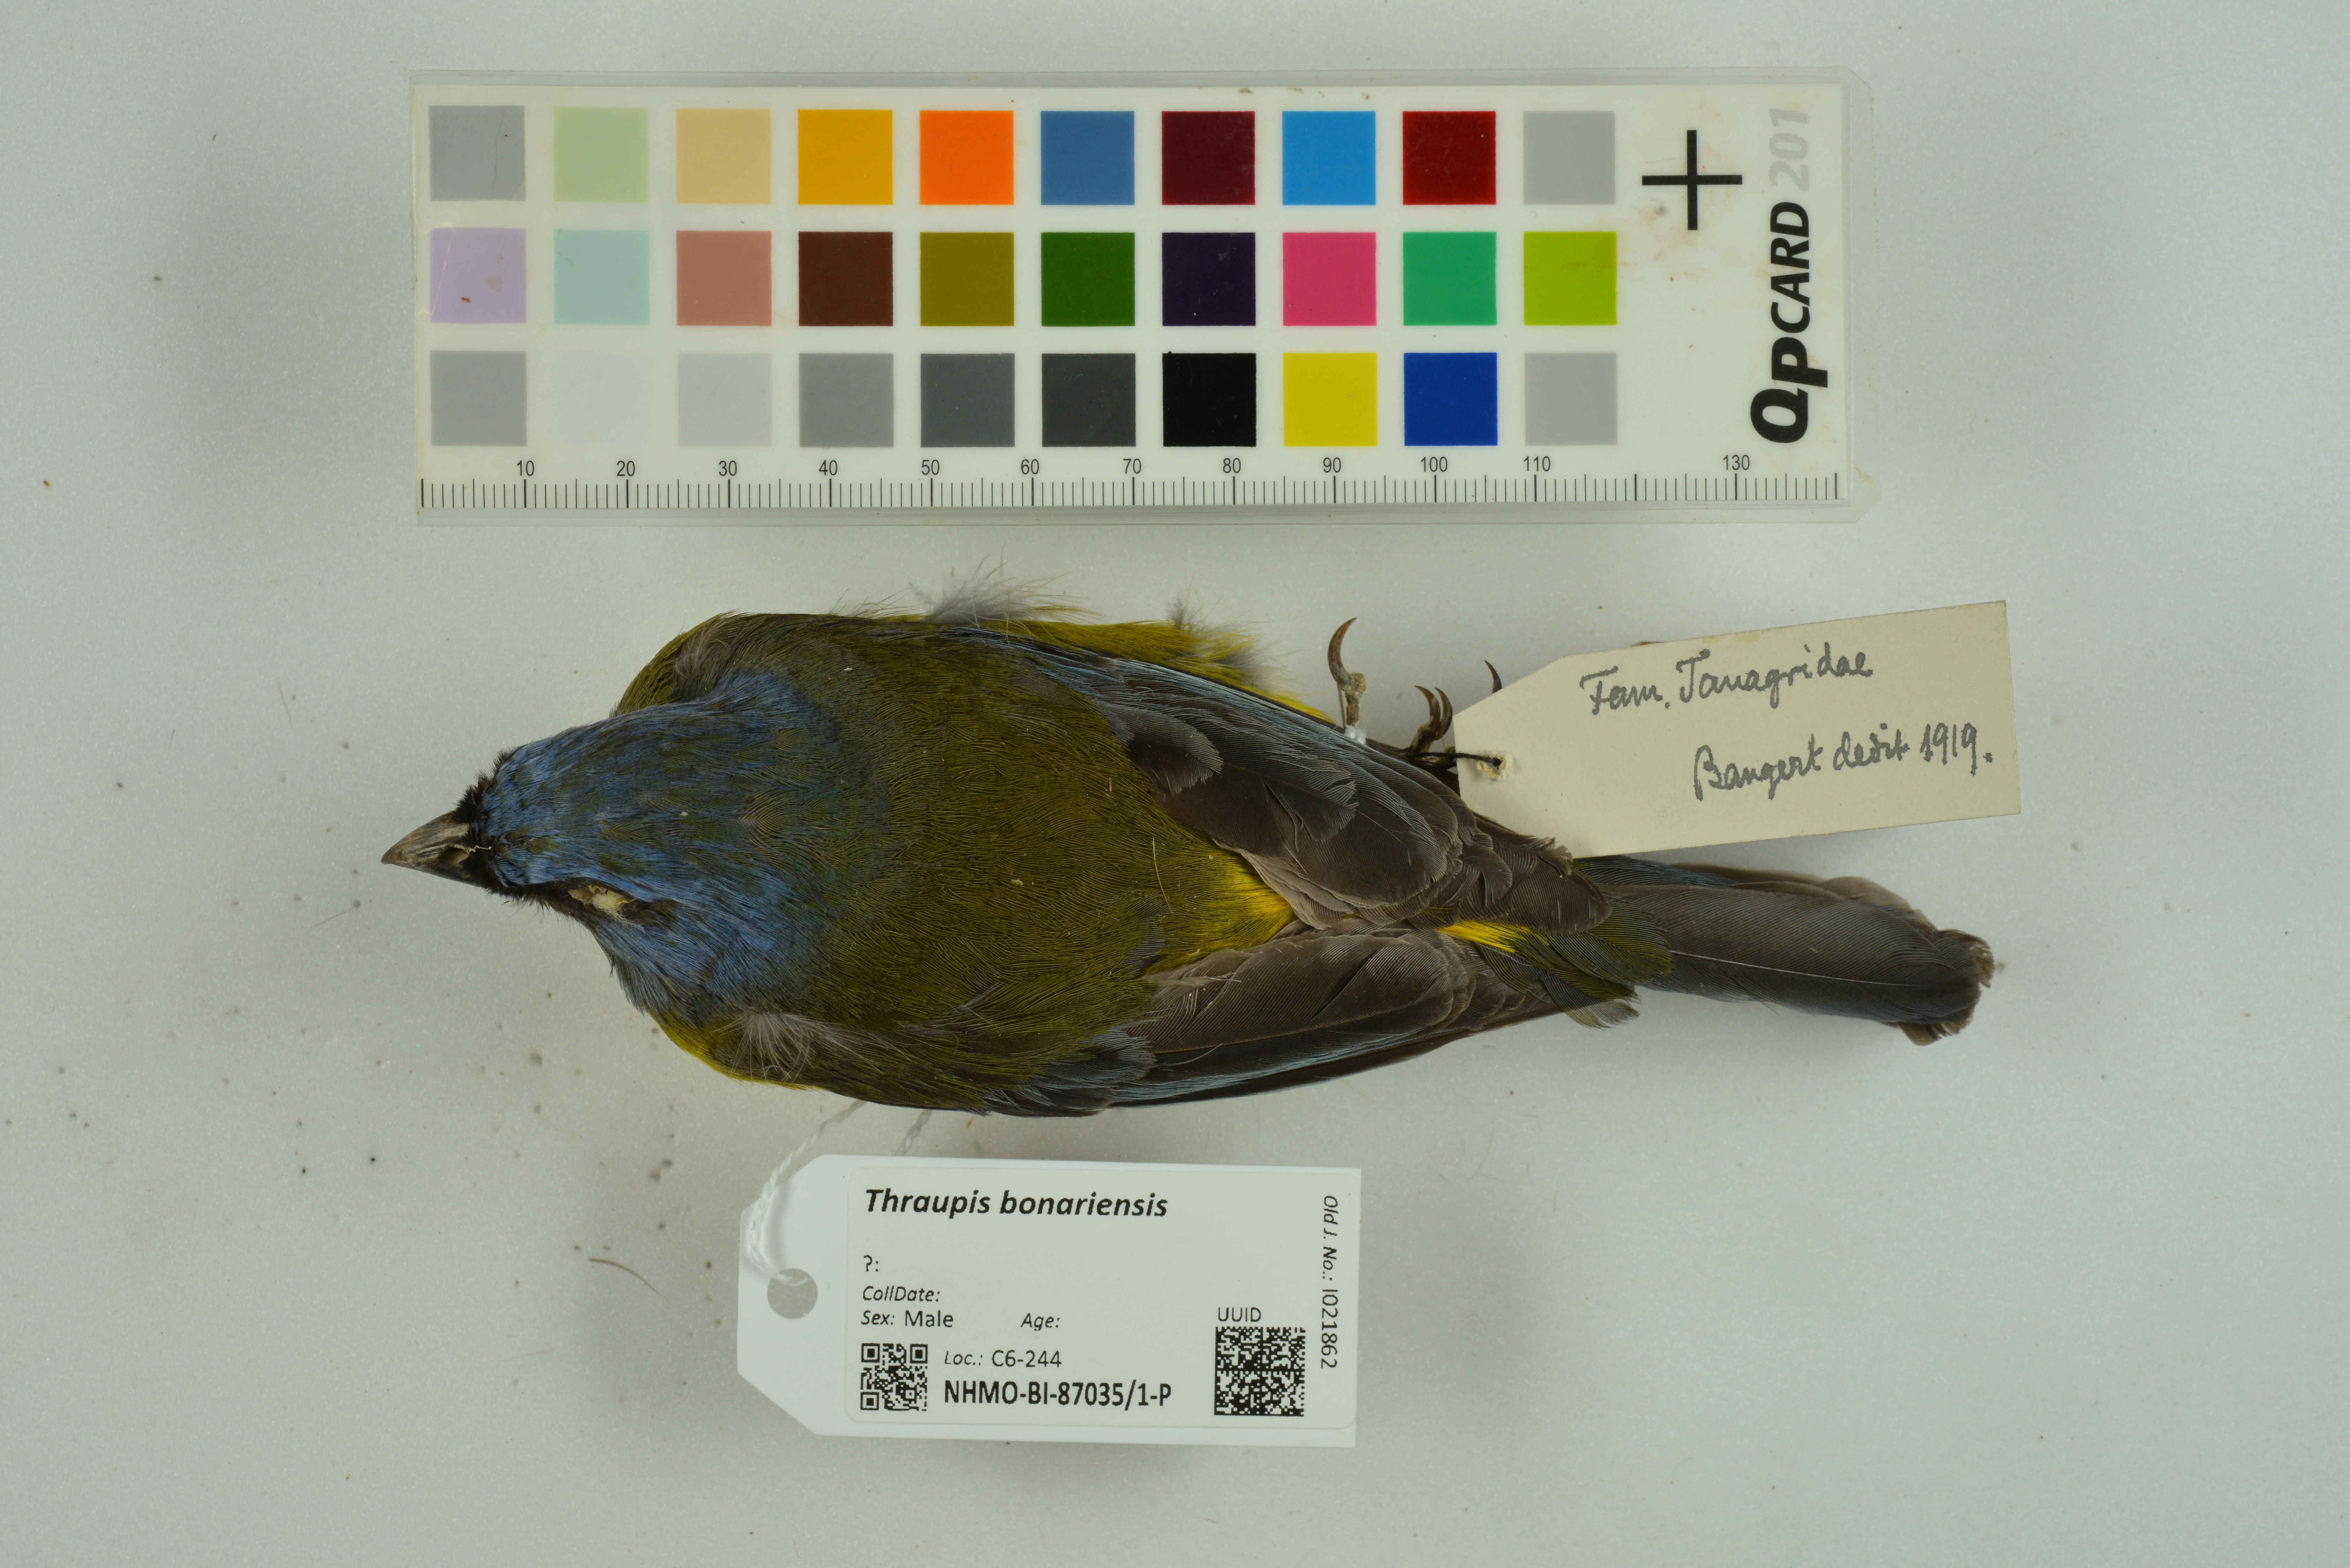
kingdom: Animalia
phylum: Chordata
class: Aves
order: Passeriformes
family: Thraupidae
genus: Rauenia
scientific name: Rauenia bonariensis
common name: Blue-and-yellow tanager
